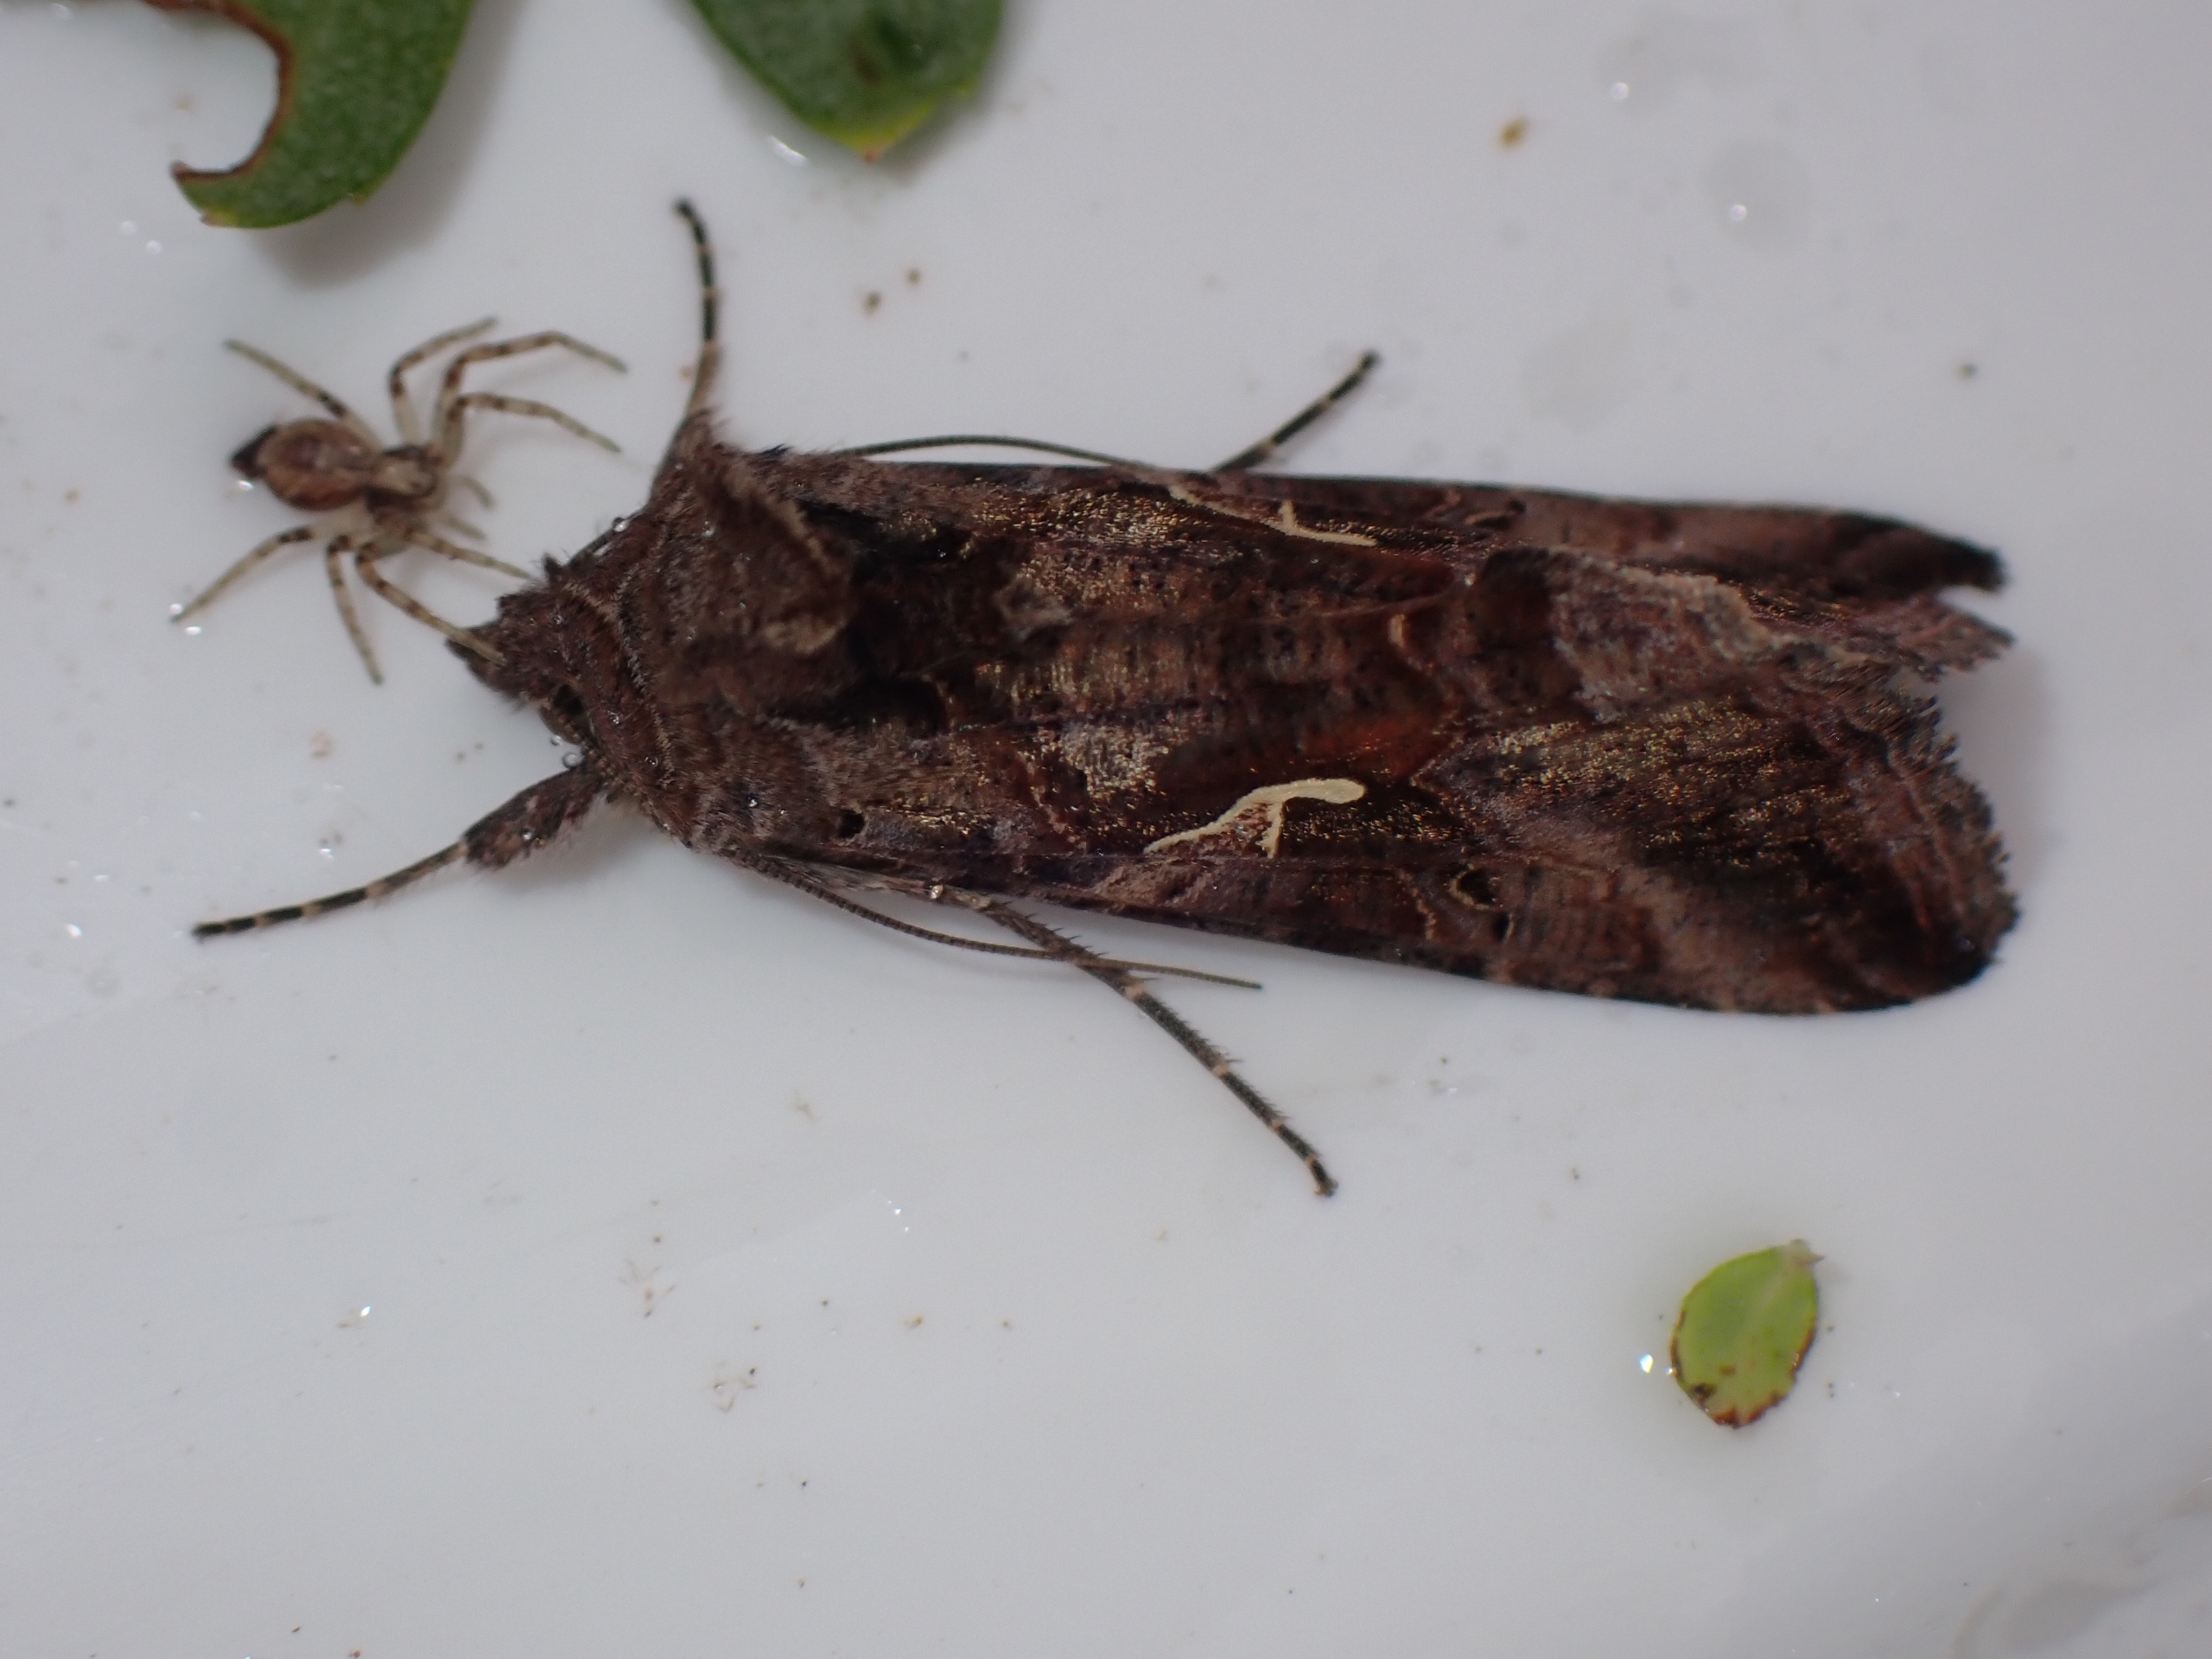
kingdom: Animalia
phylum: Arthropoda
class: Insecta
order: Lepidoptera
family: Noctuidae
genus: Autographa
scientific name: Autographa gamma
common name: Gammaugle
